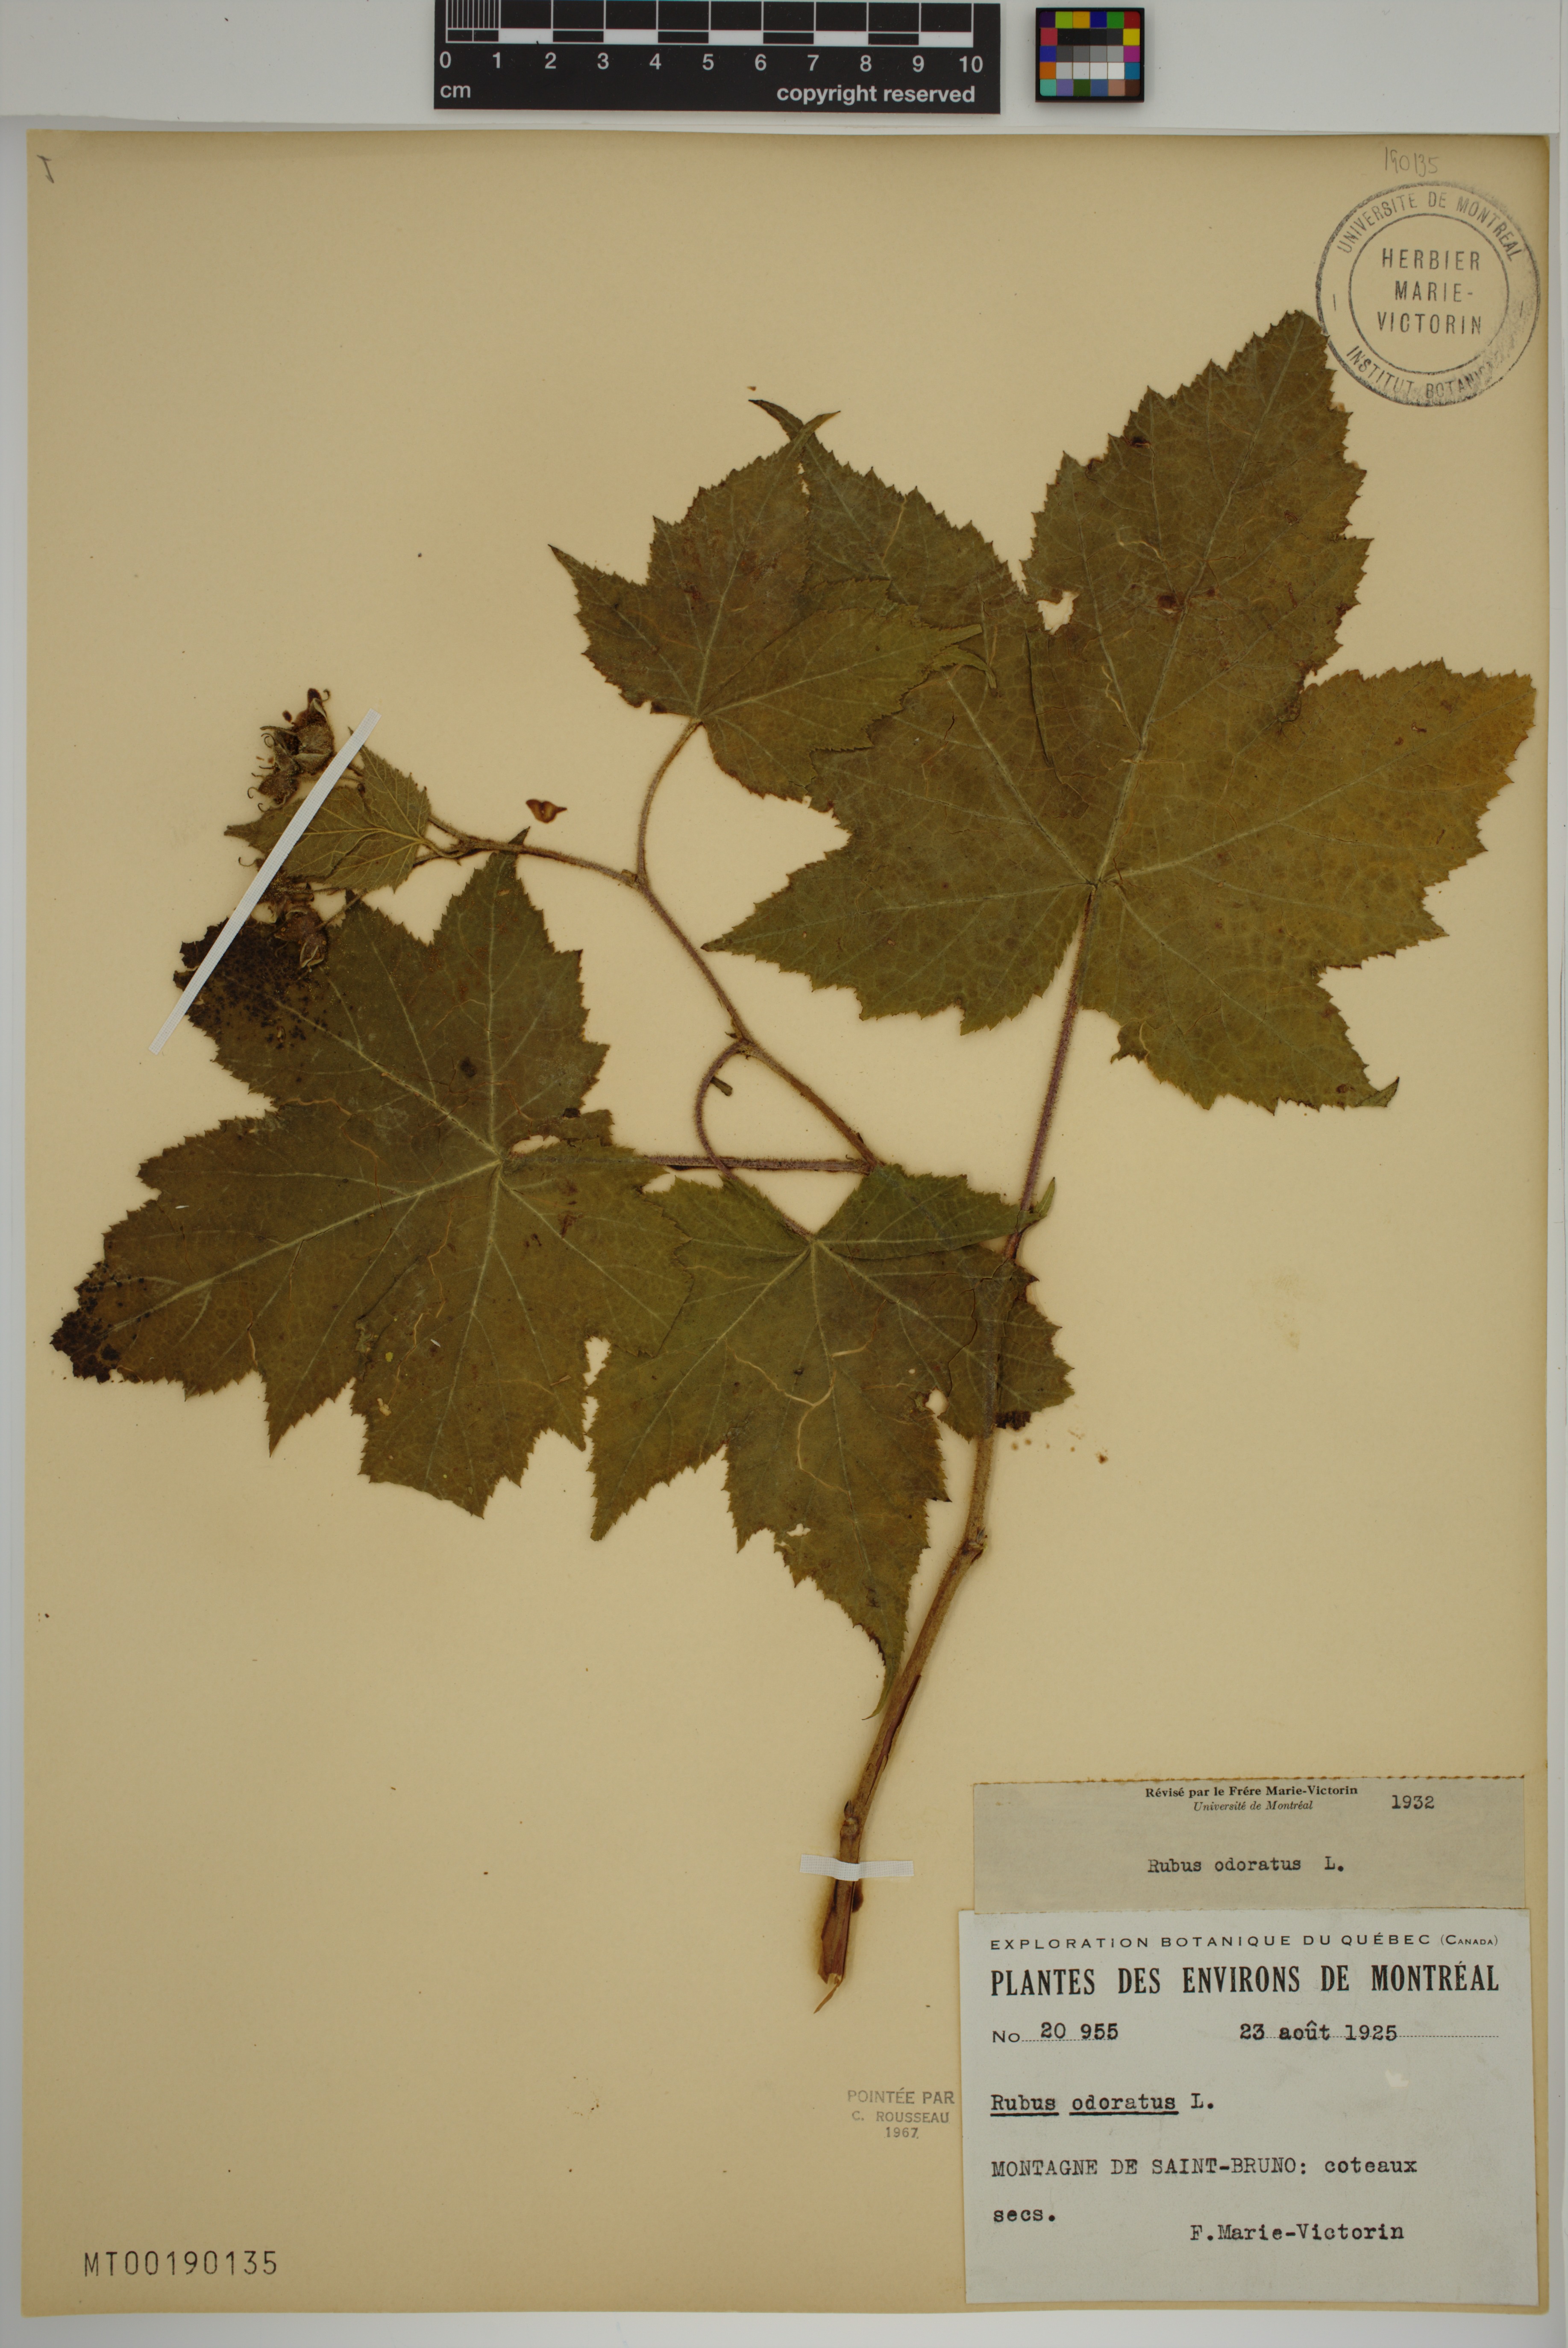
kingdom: Plantae
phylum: Tracheophyta
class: Magnoliopsida
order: Rosales
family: Rosaceae
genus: Rubus
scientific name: Rubus odoratus
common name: Purple-flowered raspberry
